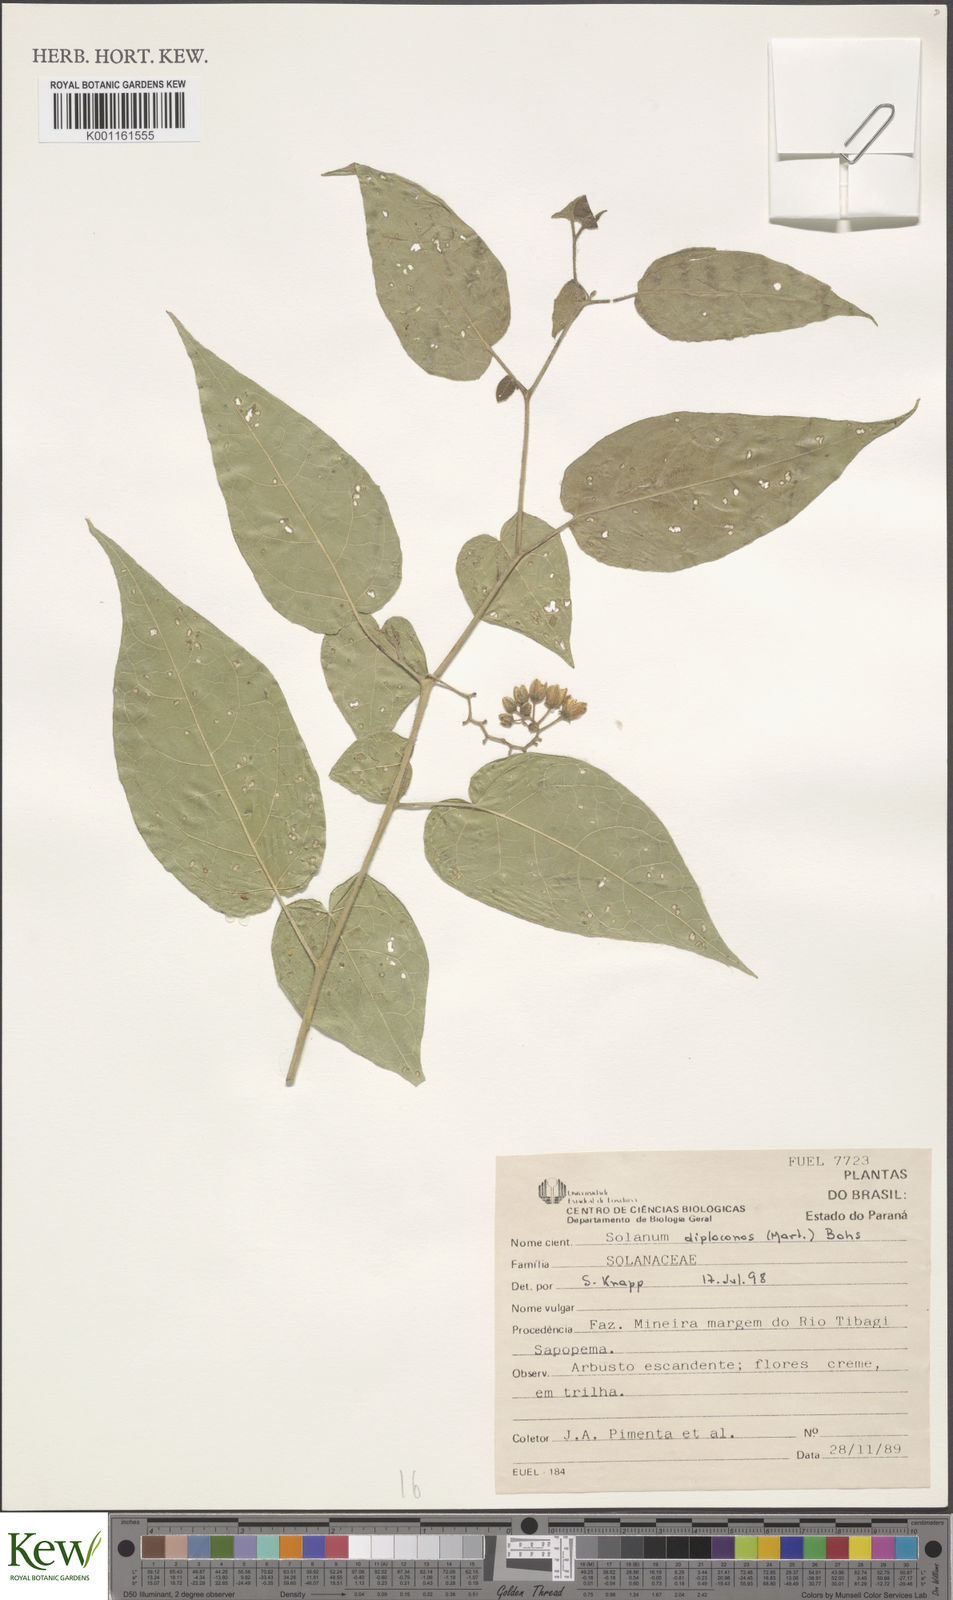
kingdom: Plantae
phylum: Tracheophyta
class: Magnoliopsida
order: Solanales
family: Solanaceae
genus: Solanum
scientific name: Solanum diploconos
